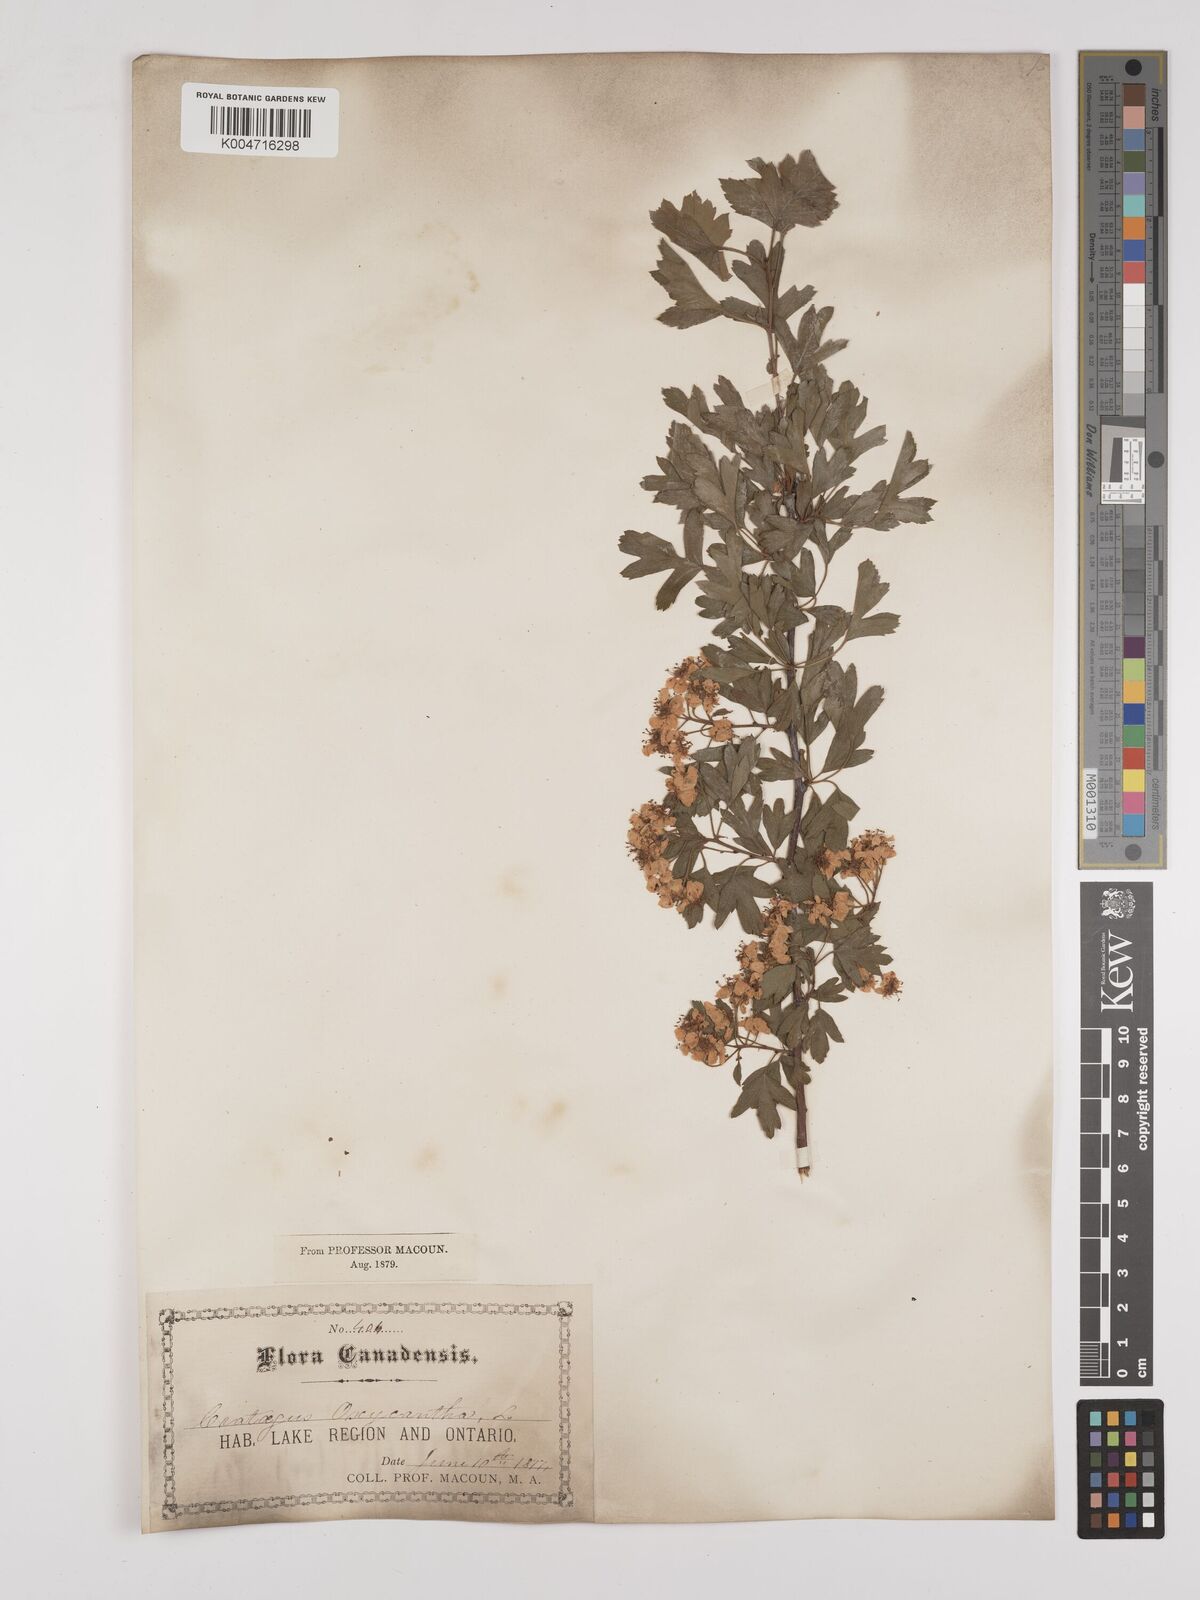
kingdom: Plantae
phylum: Tracheophyta
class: Magnoliopsida
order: Rosales
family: Rosaceae
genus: Crataegus
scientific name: Crataegus monogyna
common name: Hawthorn
